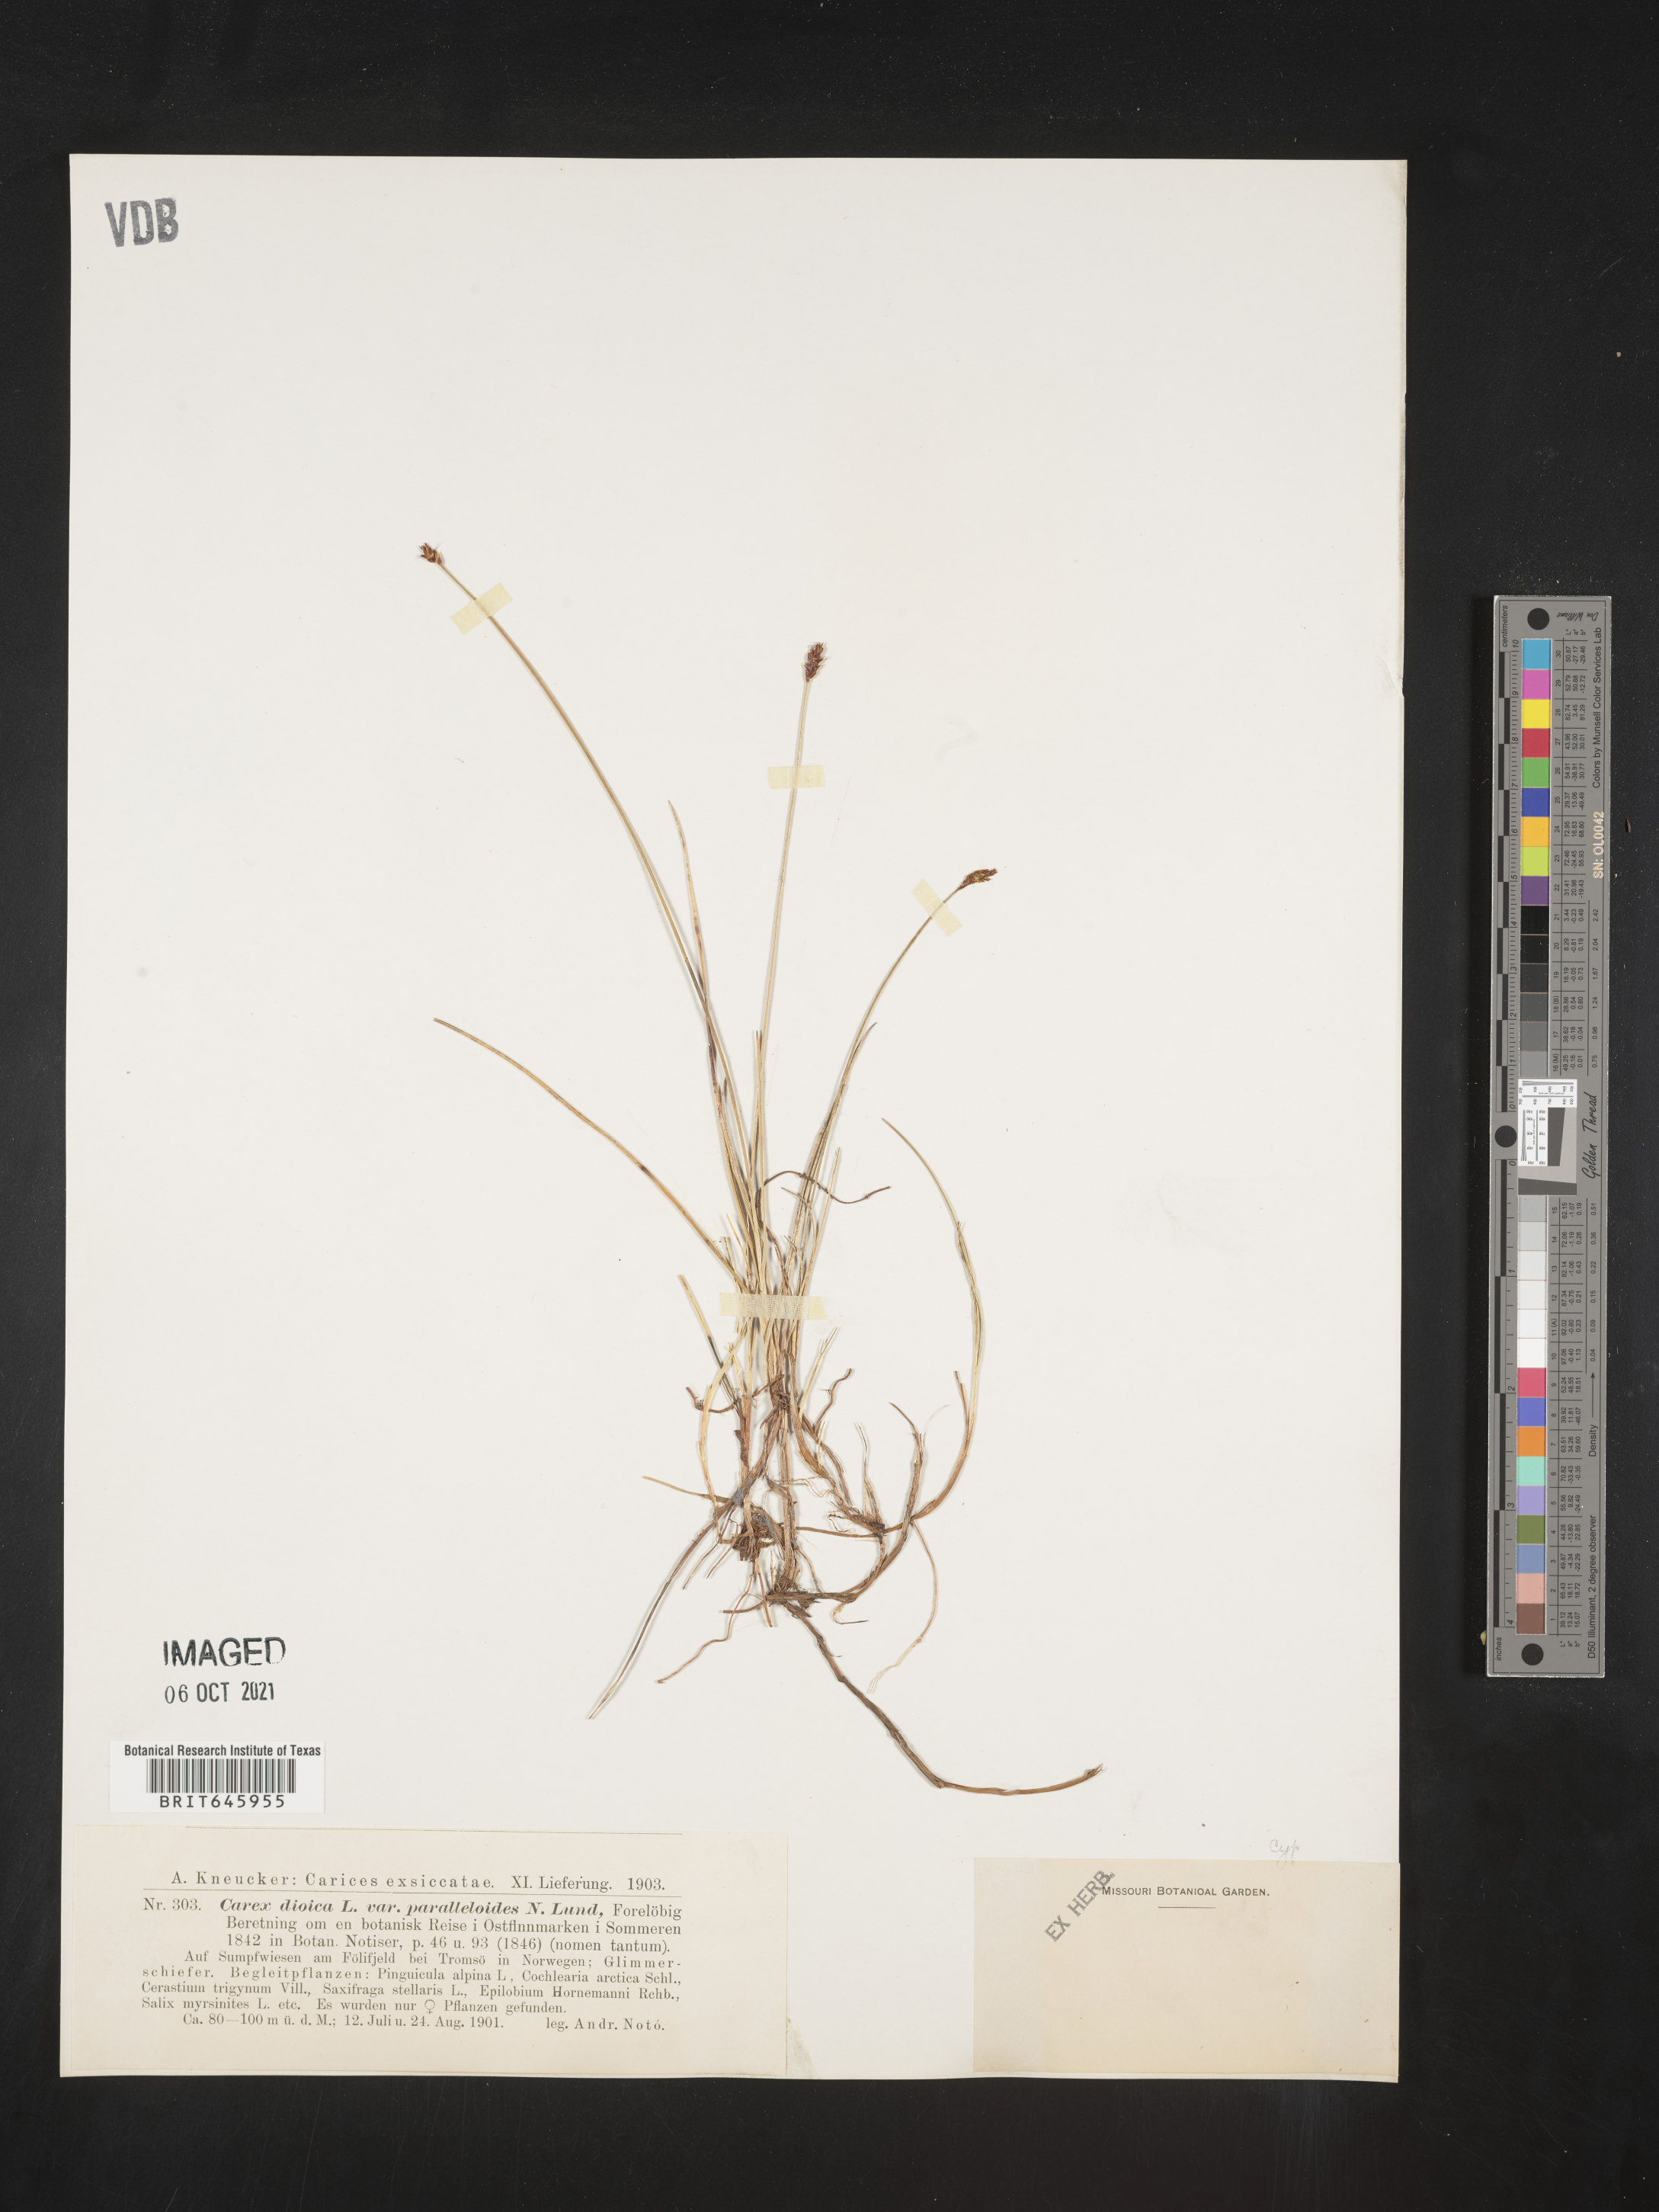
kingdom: Plantae
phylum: Tracheophyta
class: Liliopsida
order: Poales
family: Cyperaceae
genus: Carex
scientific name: Carex
